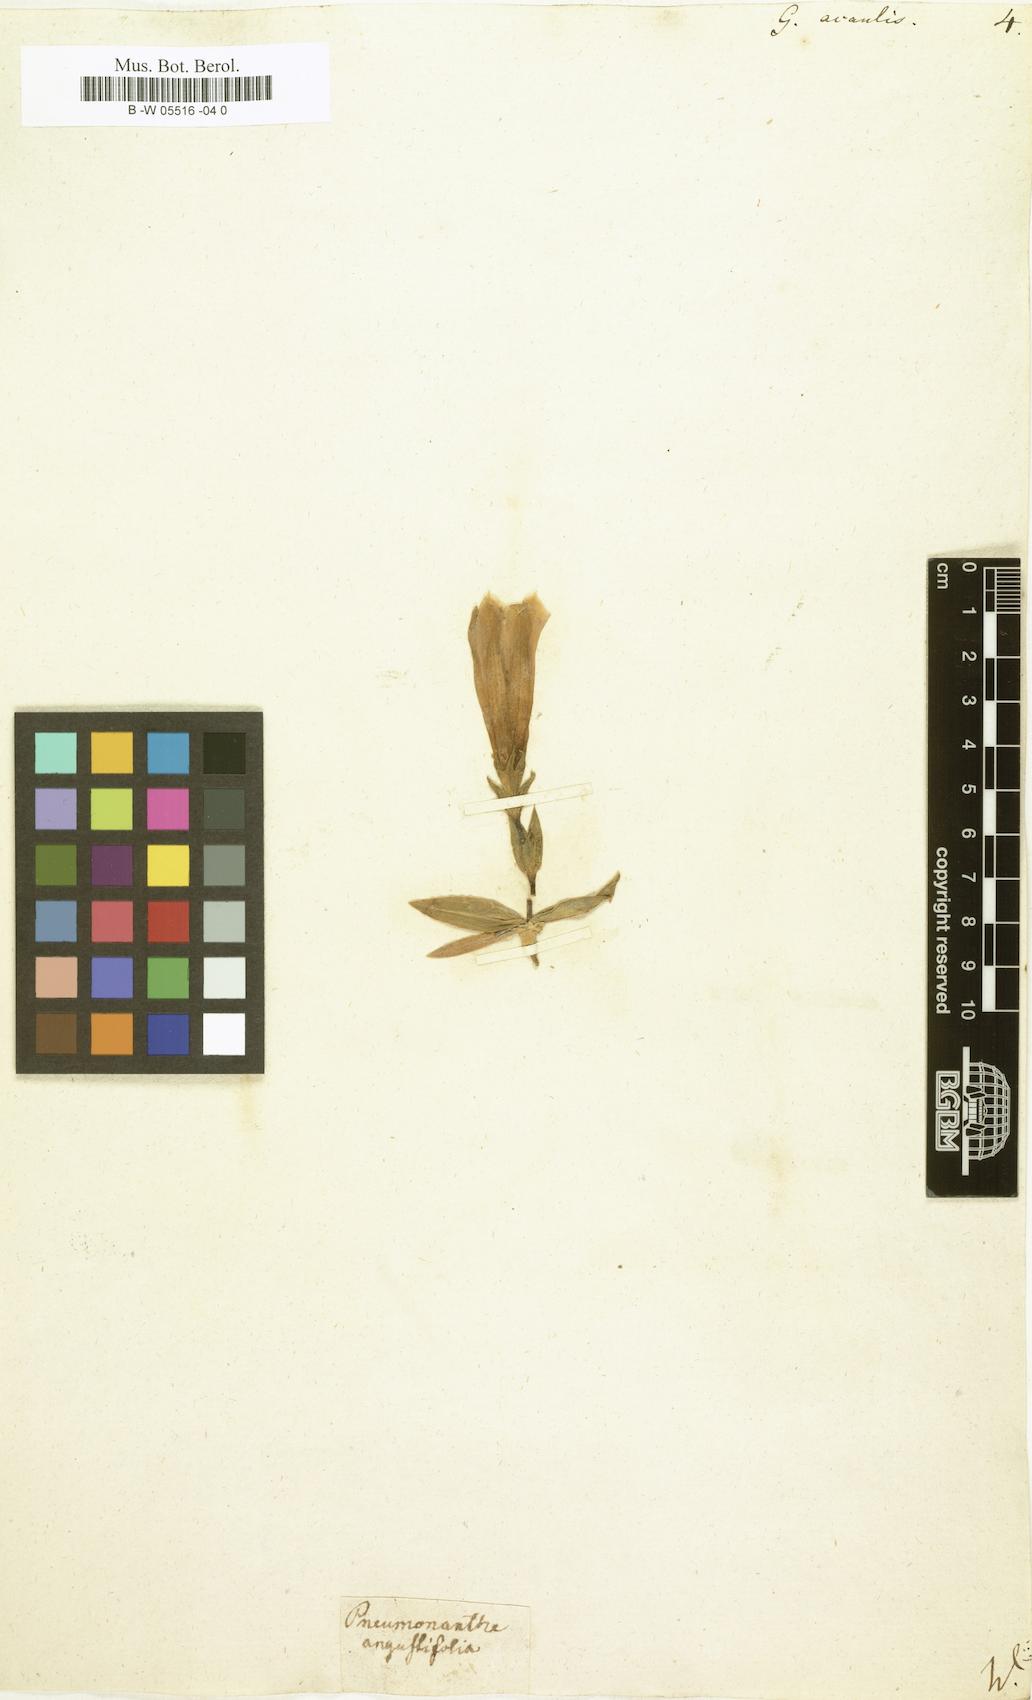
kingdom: Plantae
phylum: Tracheophyta
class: Magnoliopsida
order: Gentianales
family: Gentianaceae
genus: Gentiana
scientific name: Gentiana acaulis
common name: Trumpet gentian
